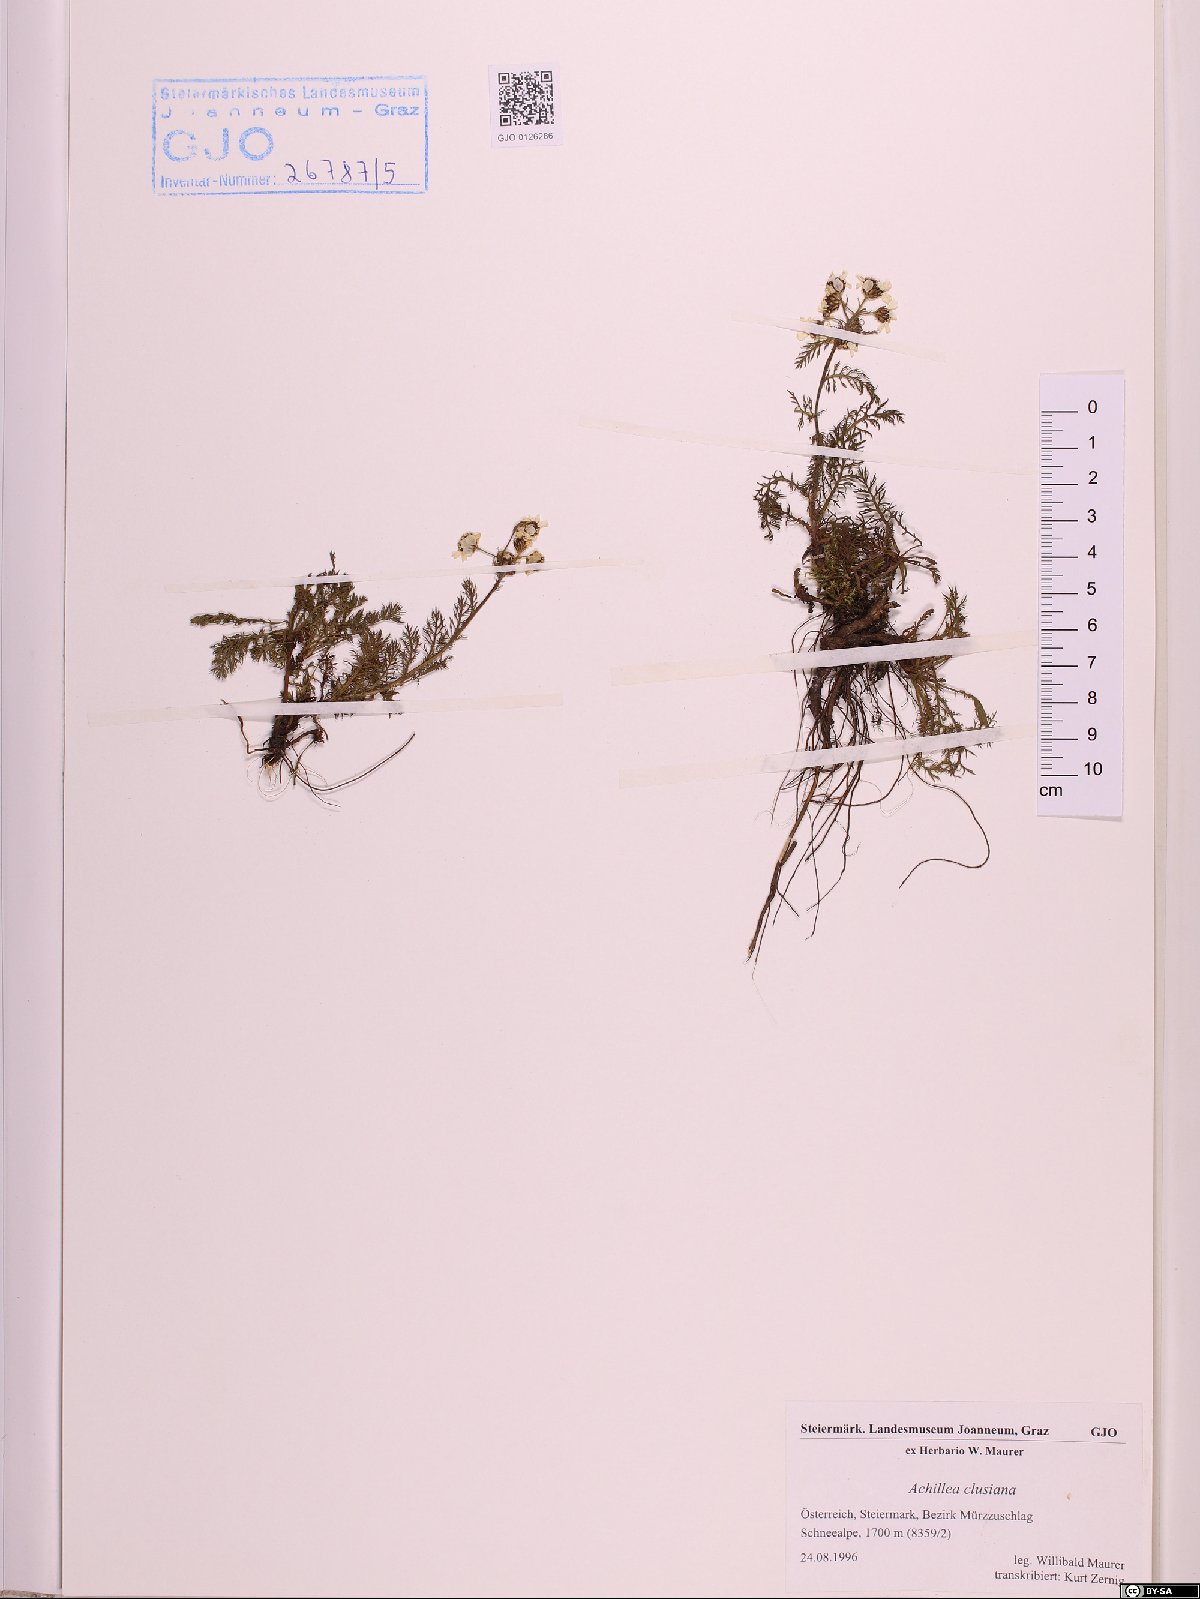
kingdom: Plantae
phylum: Tracheophyta
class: Magnoliopsida
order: Asterales
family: Asteraceae
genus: Achillea
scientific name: Achillea clusiana
